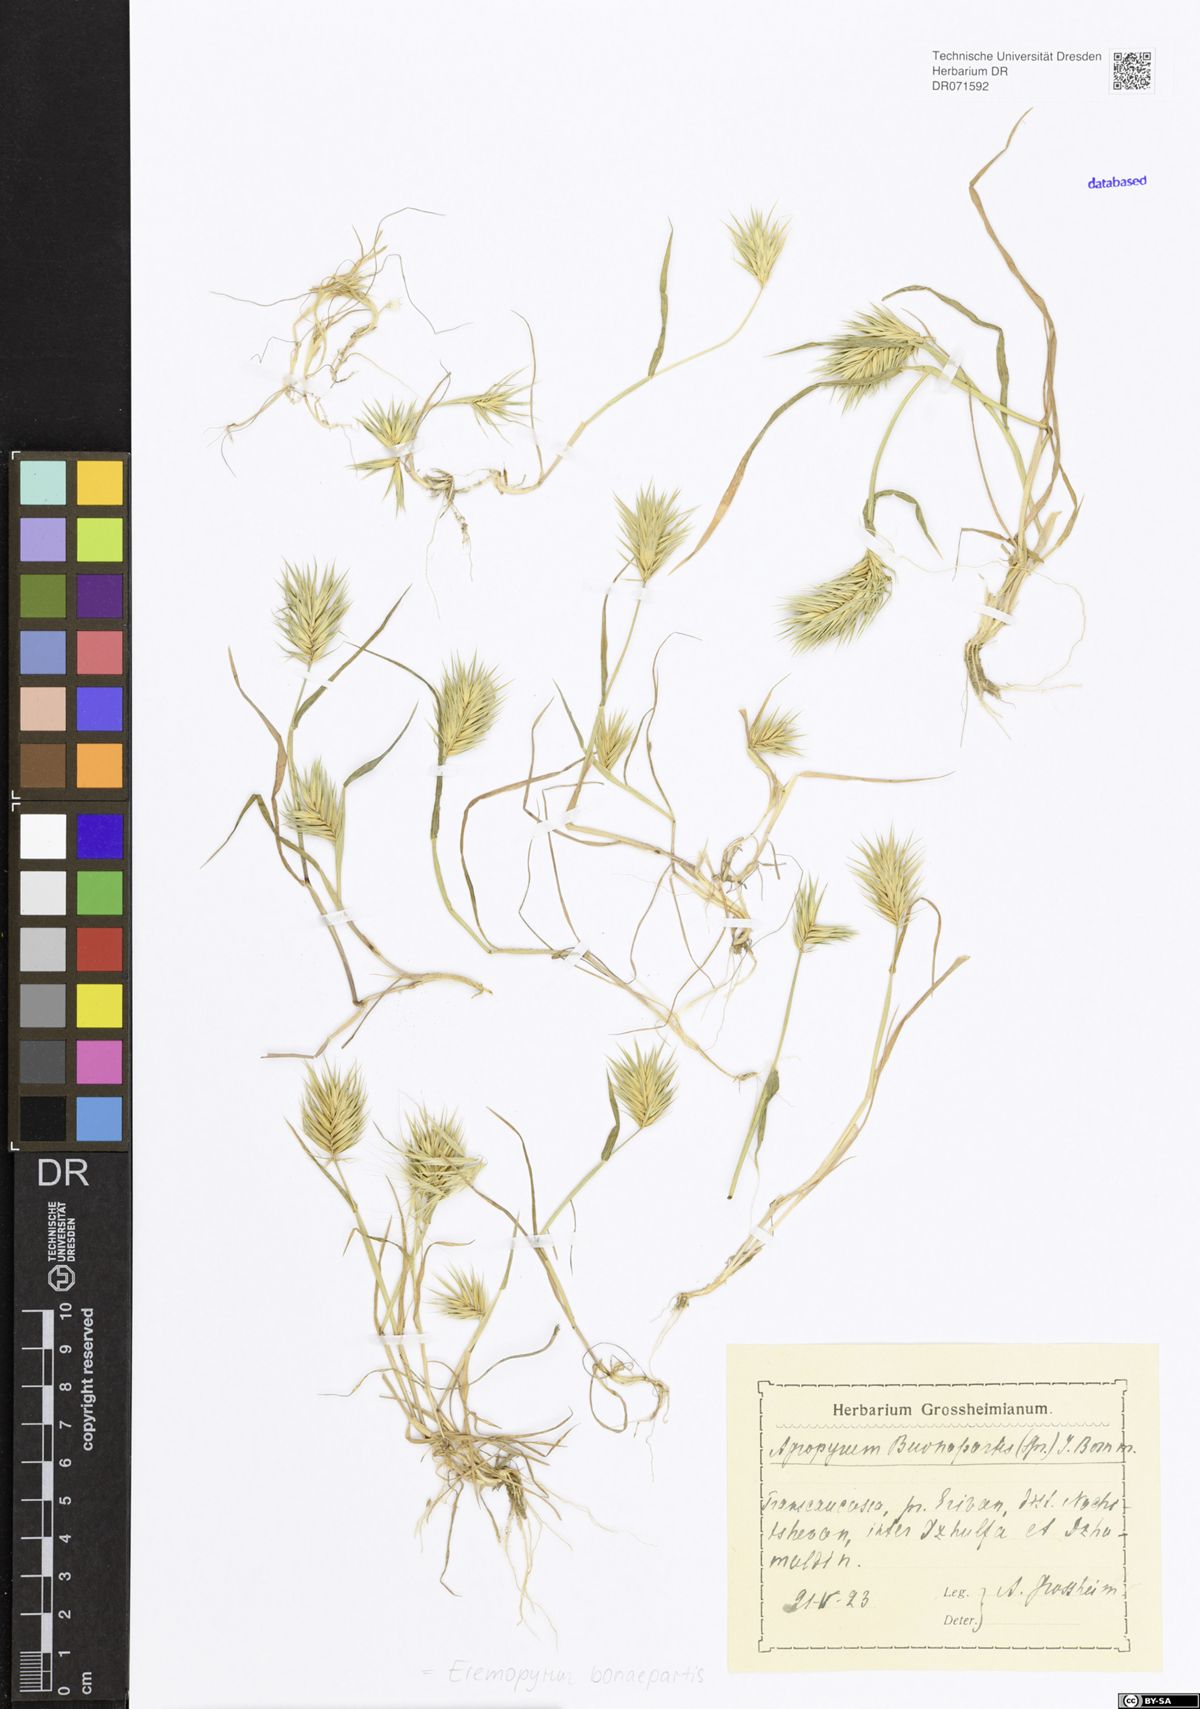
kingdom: Plantae
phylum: Tracheophyta
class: Liliopsida
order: Poales
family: Poaceae
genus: Eremopyrum
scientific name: Eremopyrum bonaepartis
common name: Tapertip false wheatgrass
